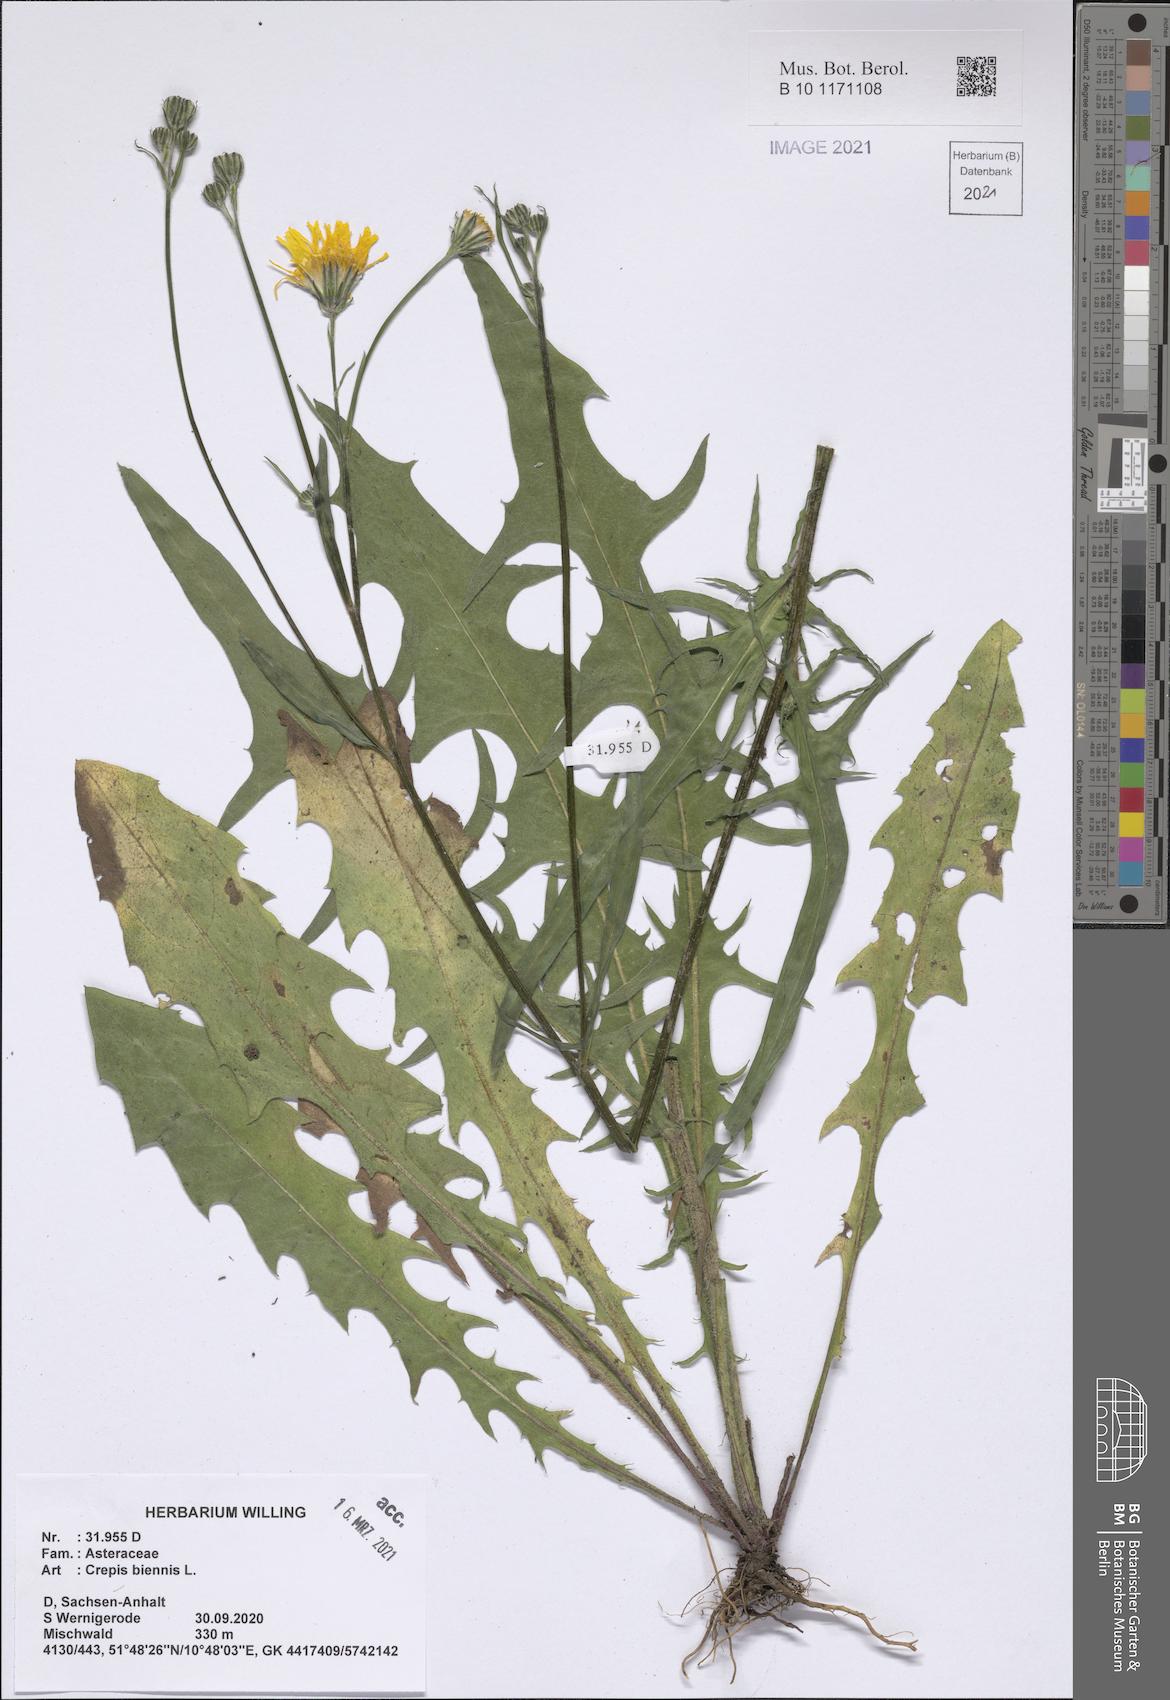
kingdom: Plantae
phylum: Tracheophyta
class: Magnoliopsida
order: Asterales
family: Asteraceae
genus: Crepis
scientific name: Crepis biennis
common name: Rough hawk's-beard
